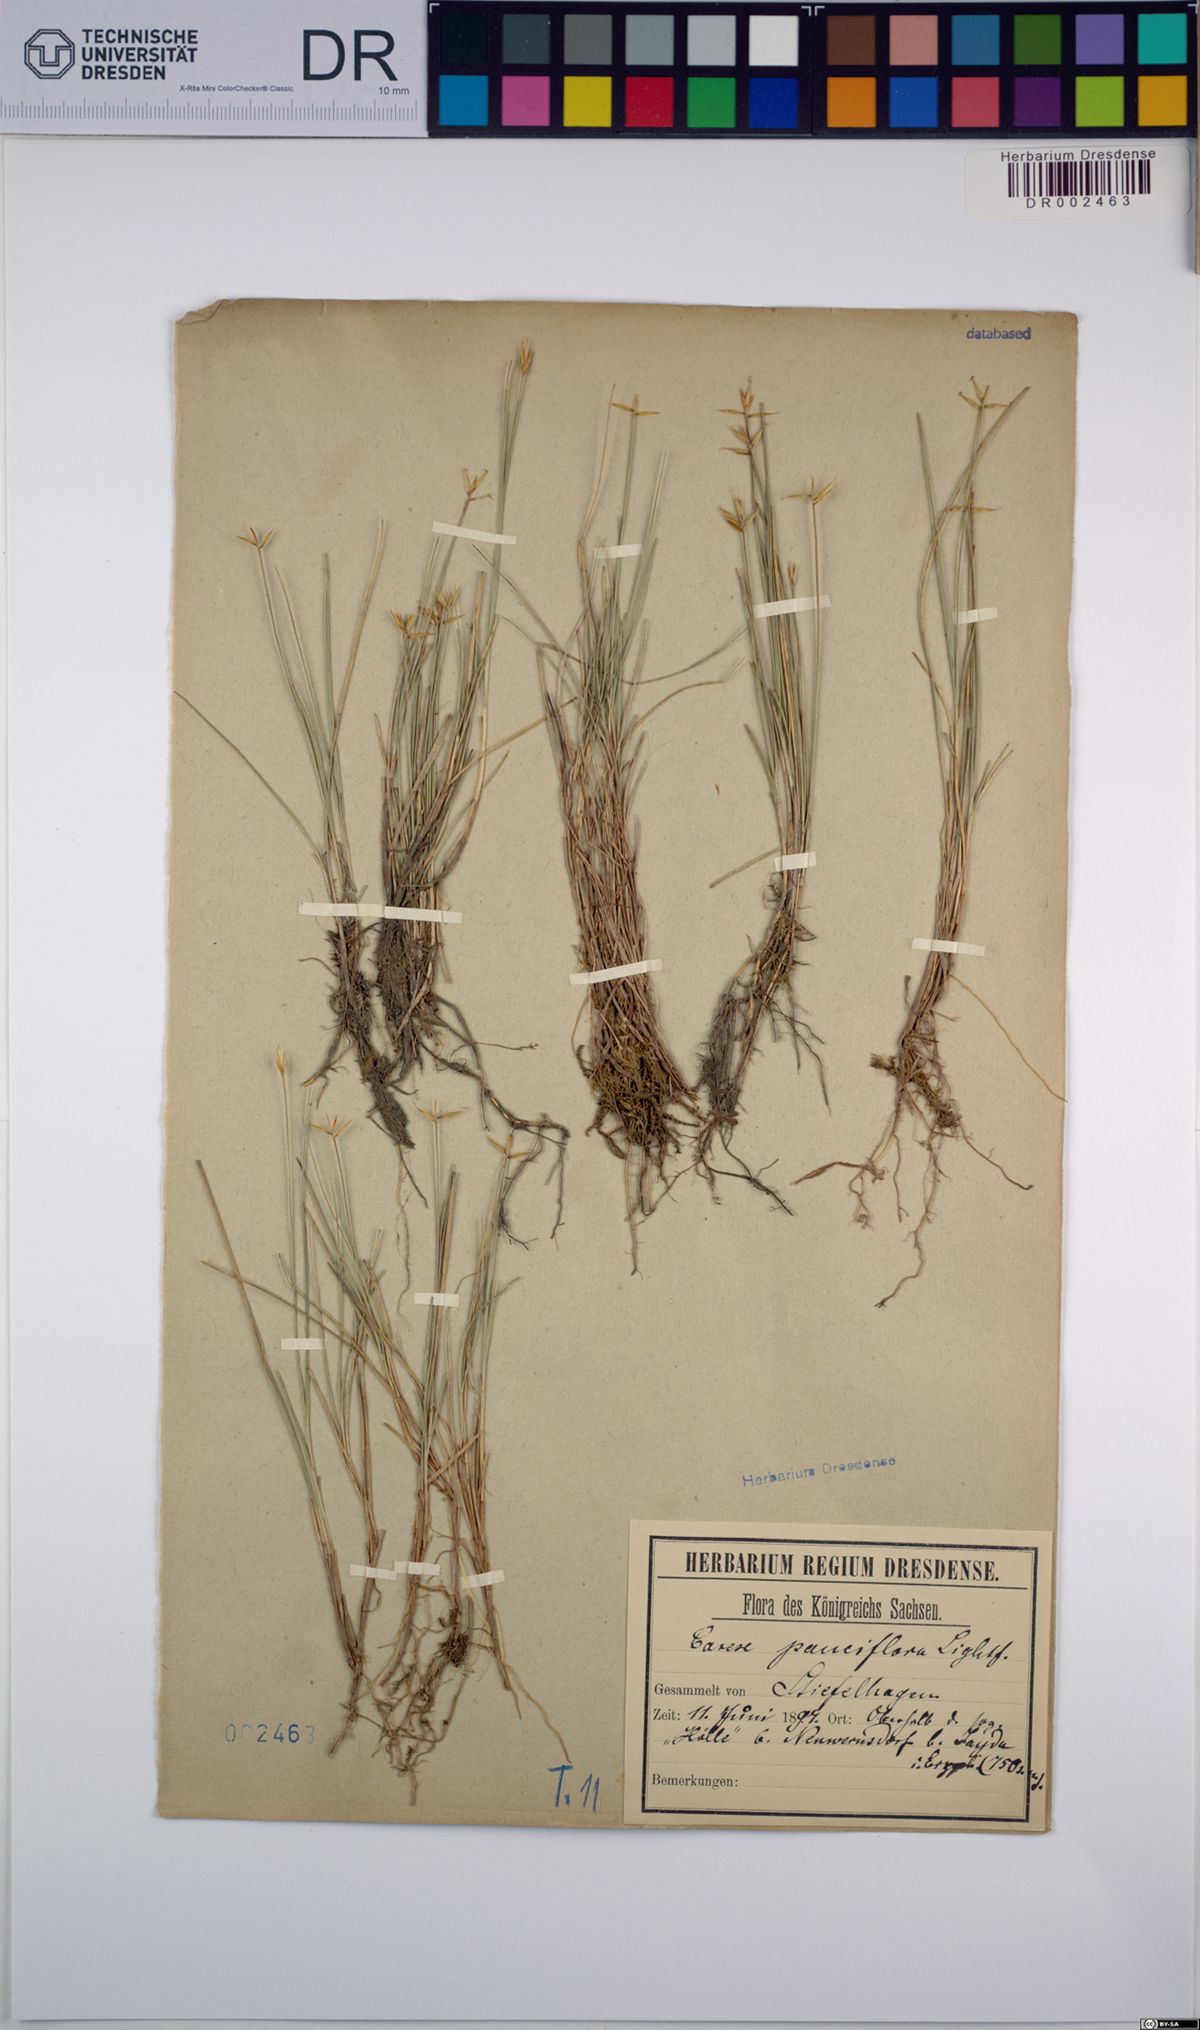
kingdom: Plantae
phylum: Tracheophyta
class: Liliopsida
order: Poales
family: Cyperaceae
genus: Carex
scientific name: Carex pauciflora
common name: Few-flowered sedge
